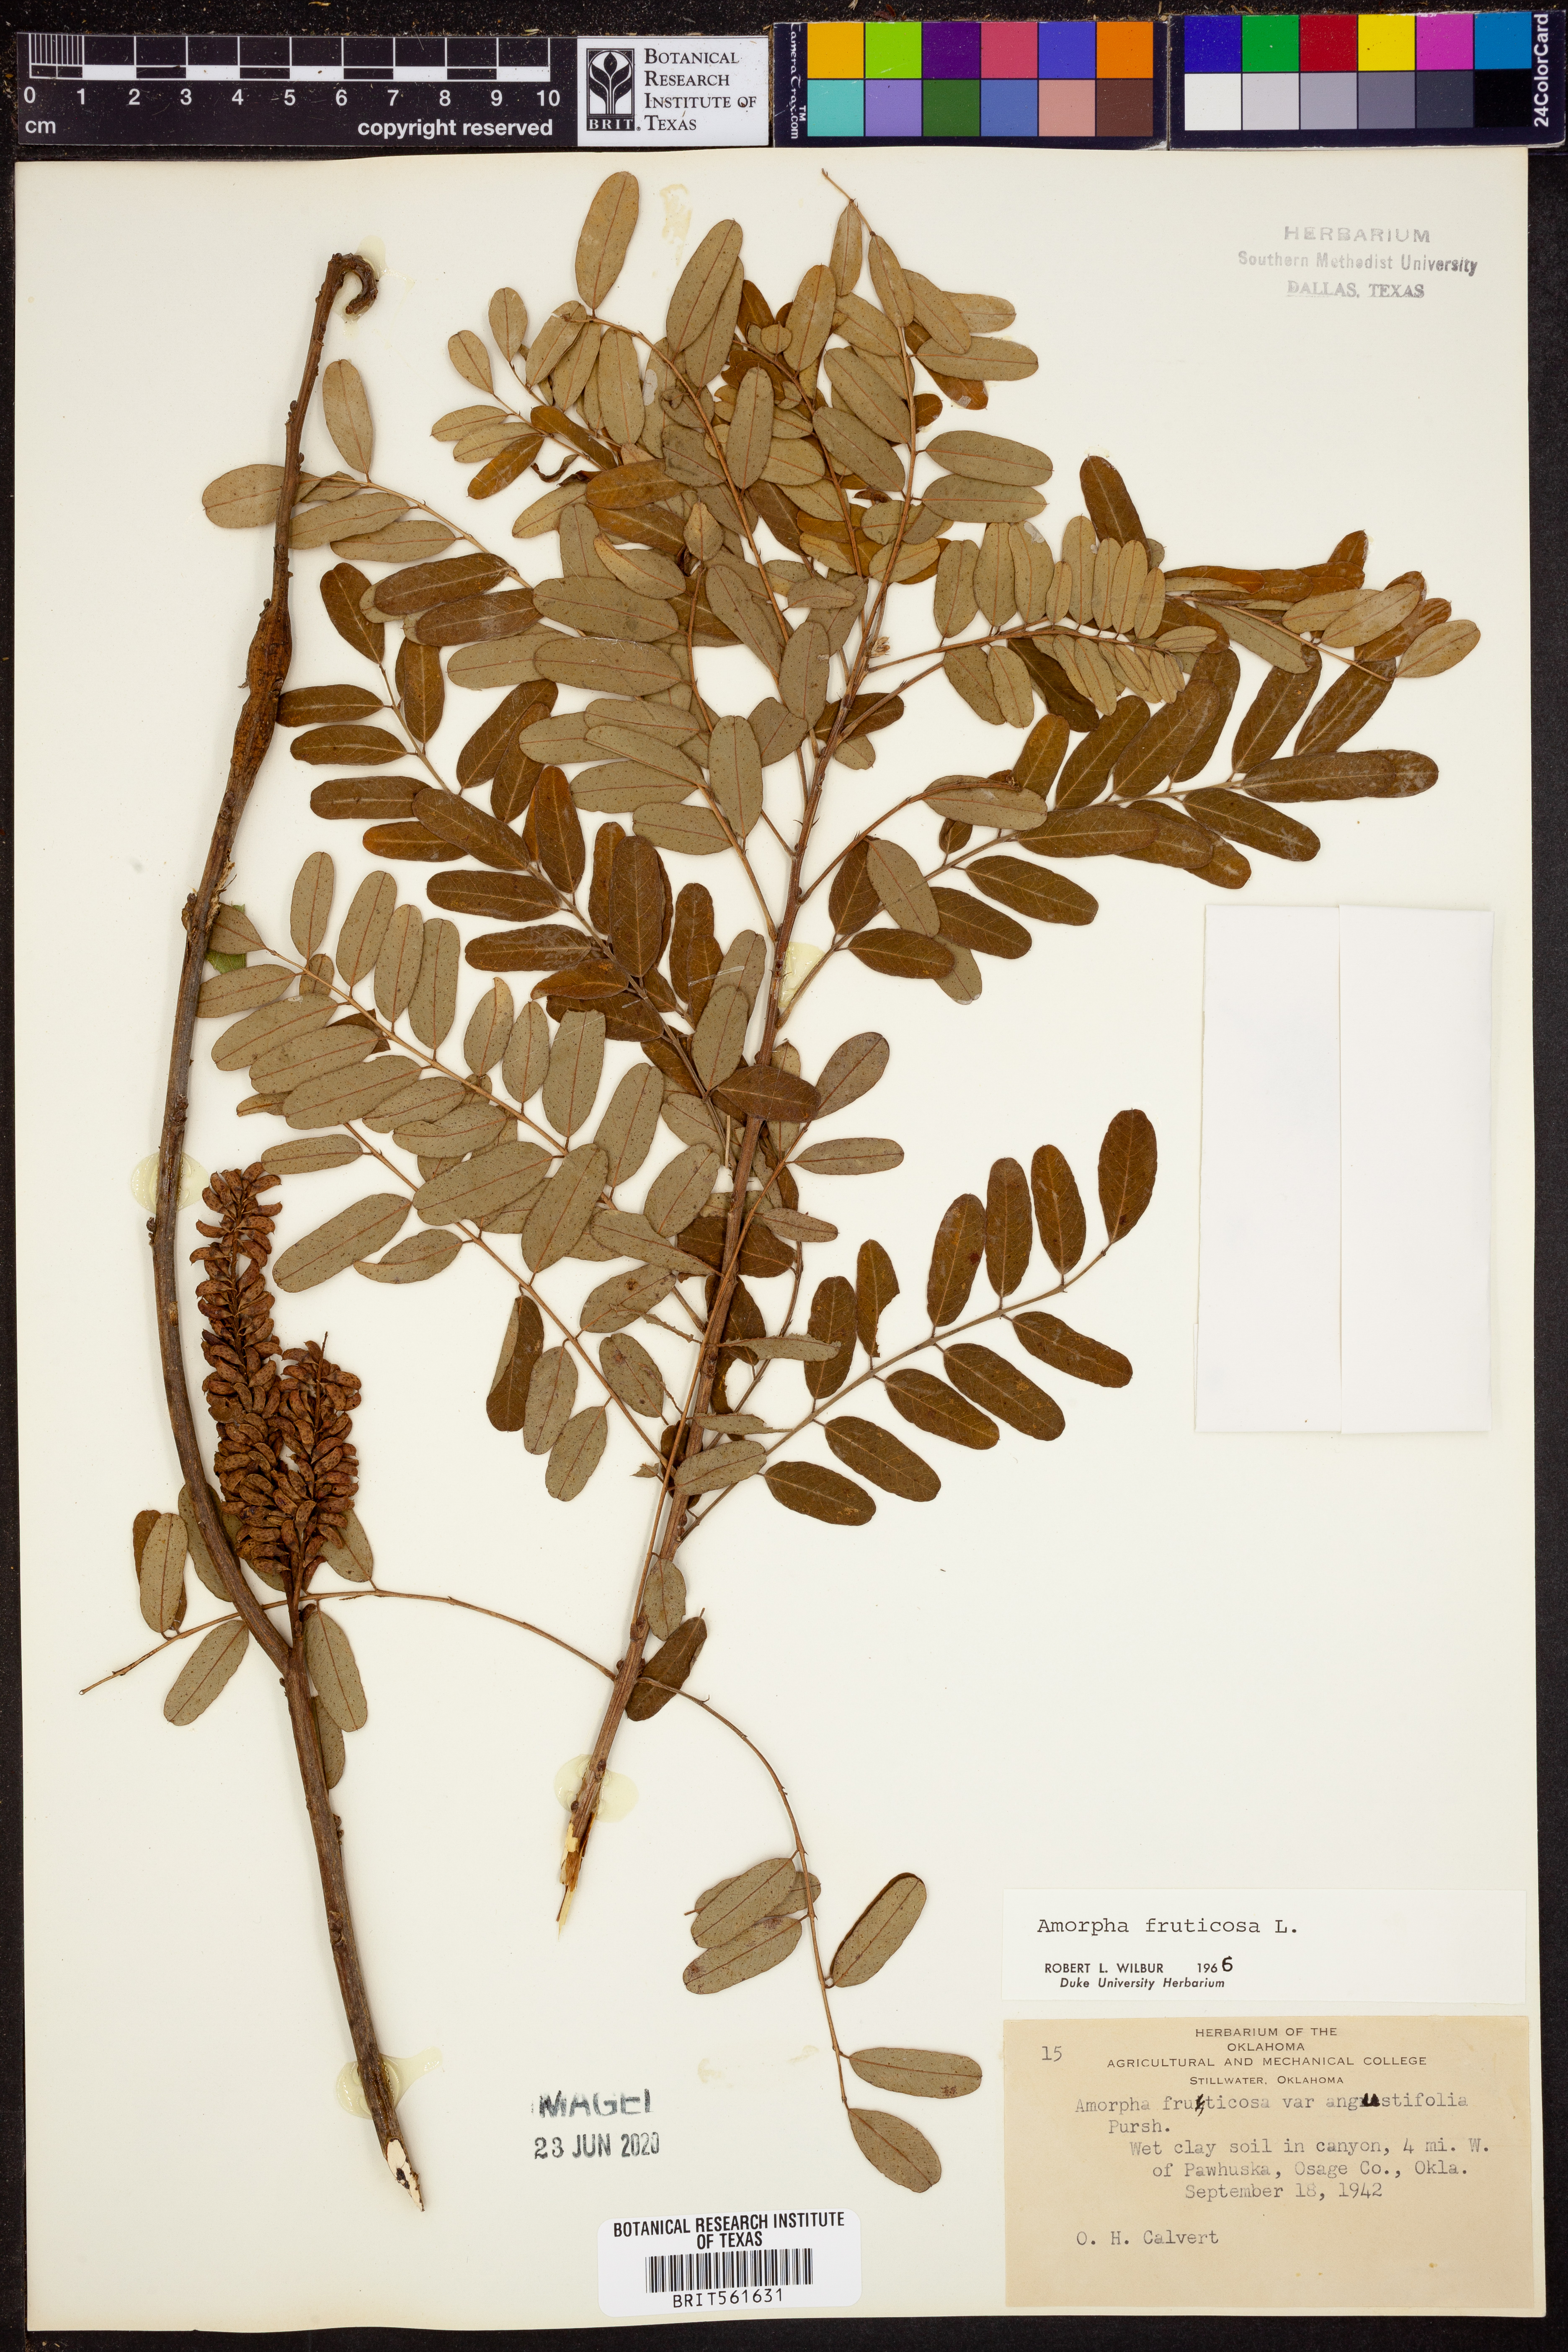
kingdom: Plantae
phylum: Tracheophyta
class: Magnoliopsida
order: Fabales
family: Fabaceae
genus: Amorpha
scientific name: Amorpha fruticosa
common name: False indigo
